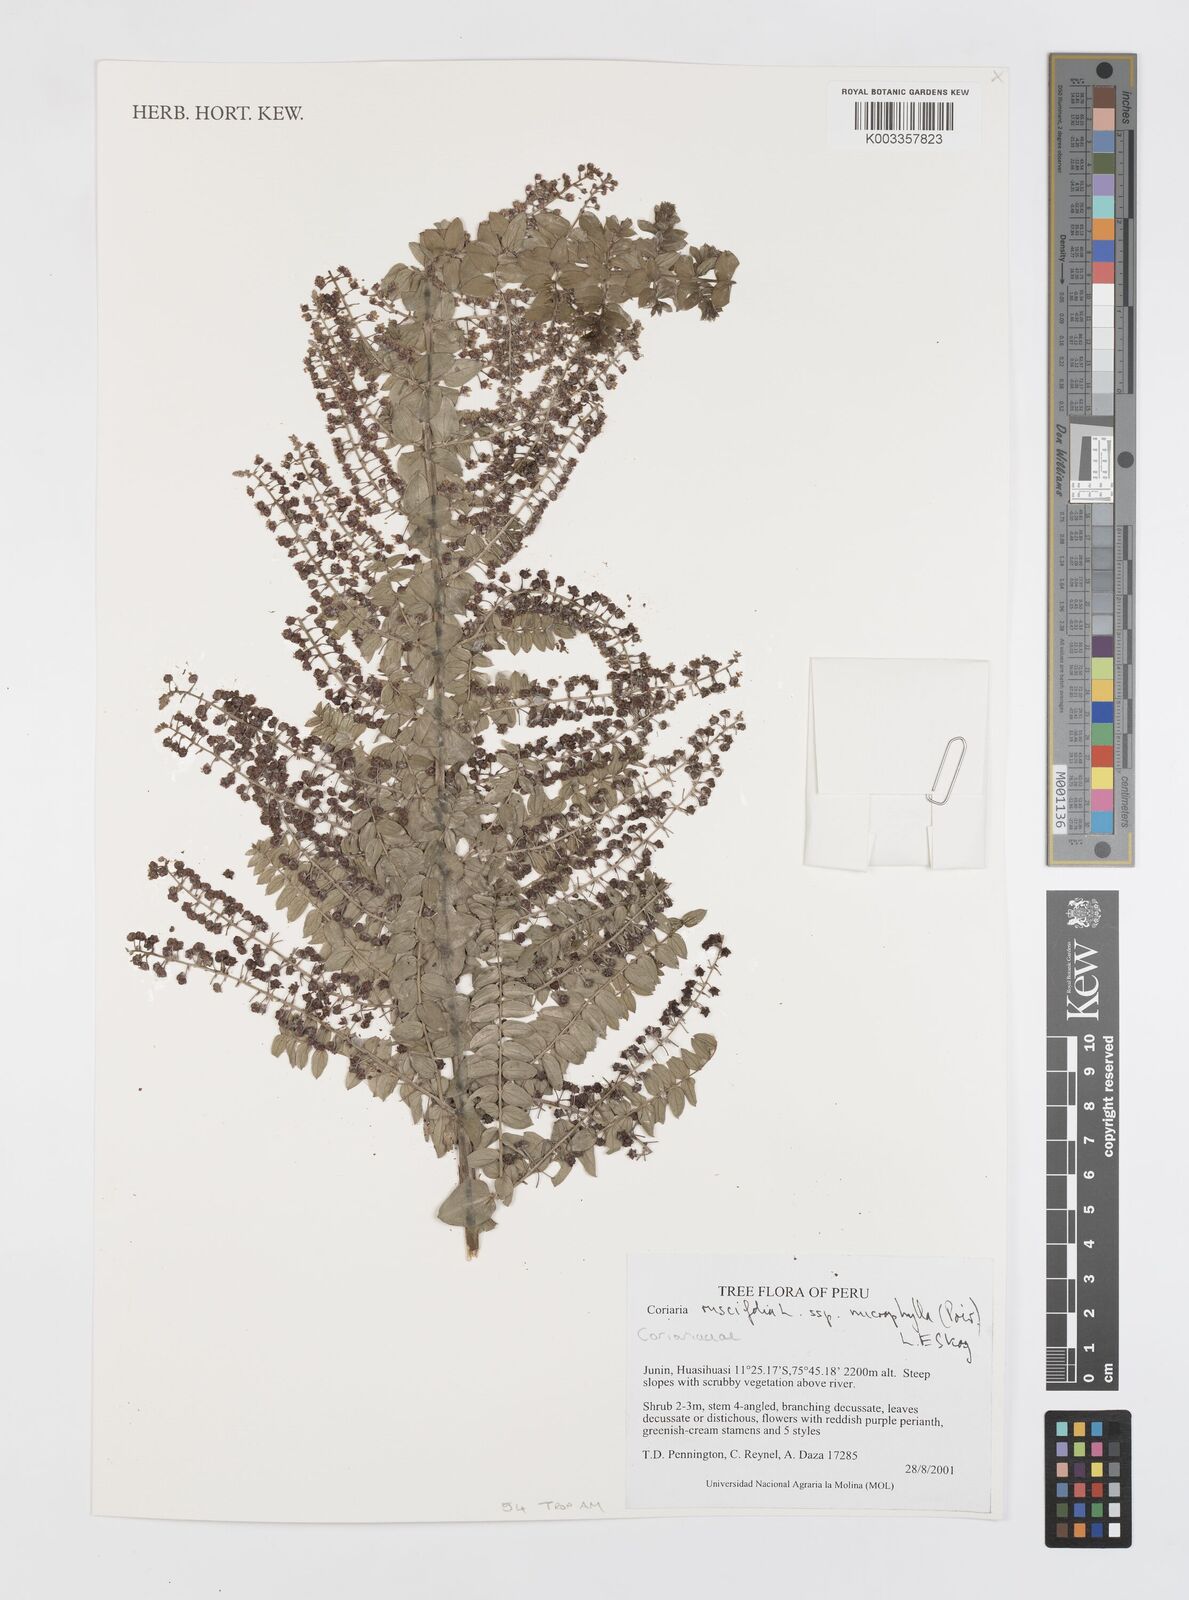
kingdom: Plantae
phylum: Tracheophyta
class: Magnoliopsida
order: Cucurbitales
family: Coriariaceae
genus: Coriaria
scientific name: Coriaria ruscifolia
